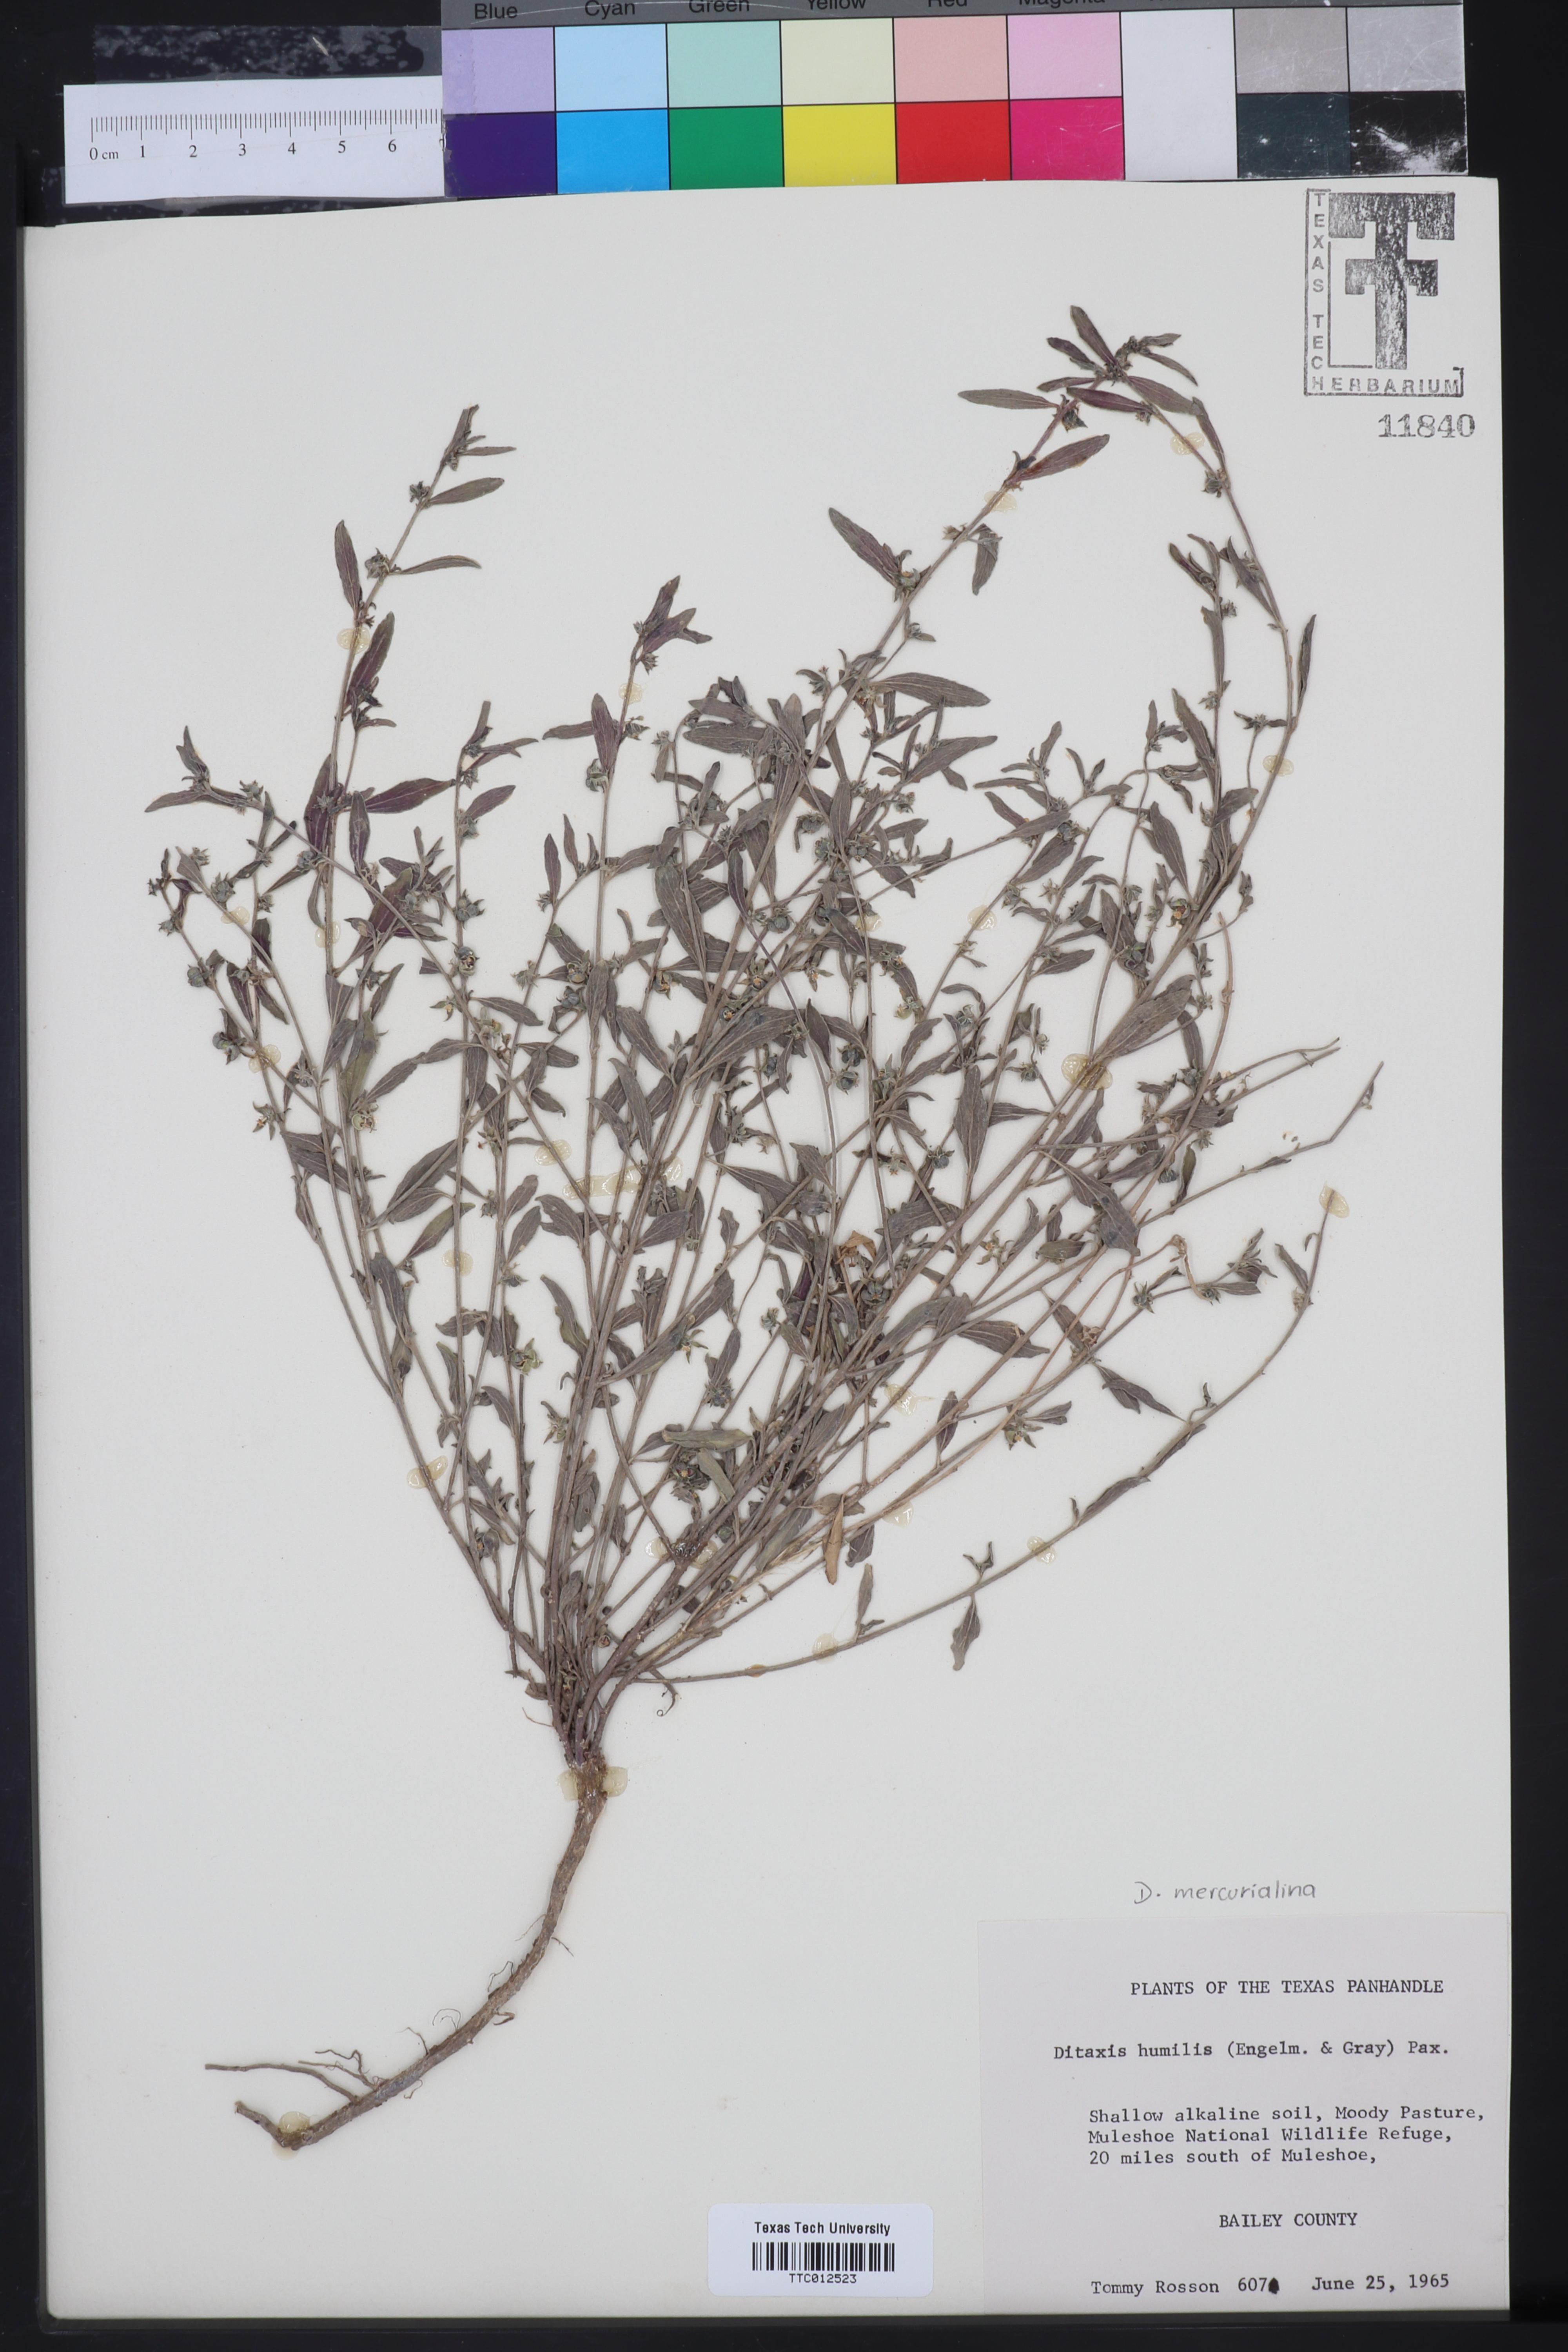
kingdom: Plantae
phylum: Tracheophyta
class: Magnoliopsida
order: Malpighiales
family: Euphorbiaceae
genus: Ditaxis
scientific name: Ditaxis humilis
